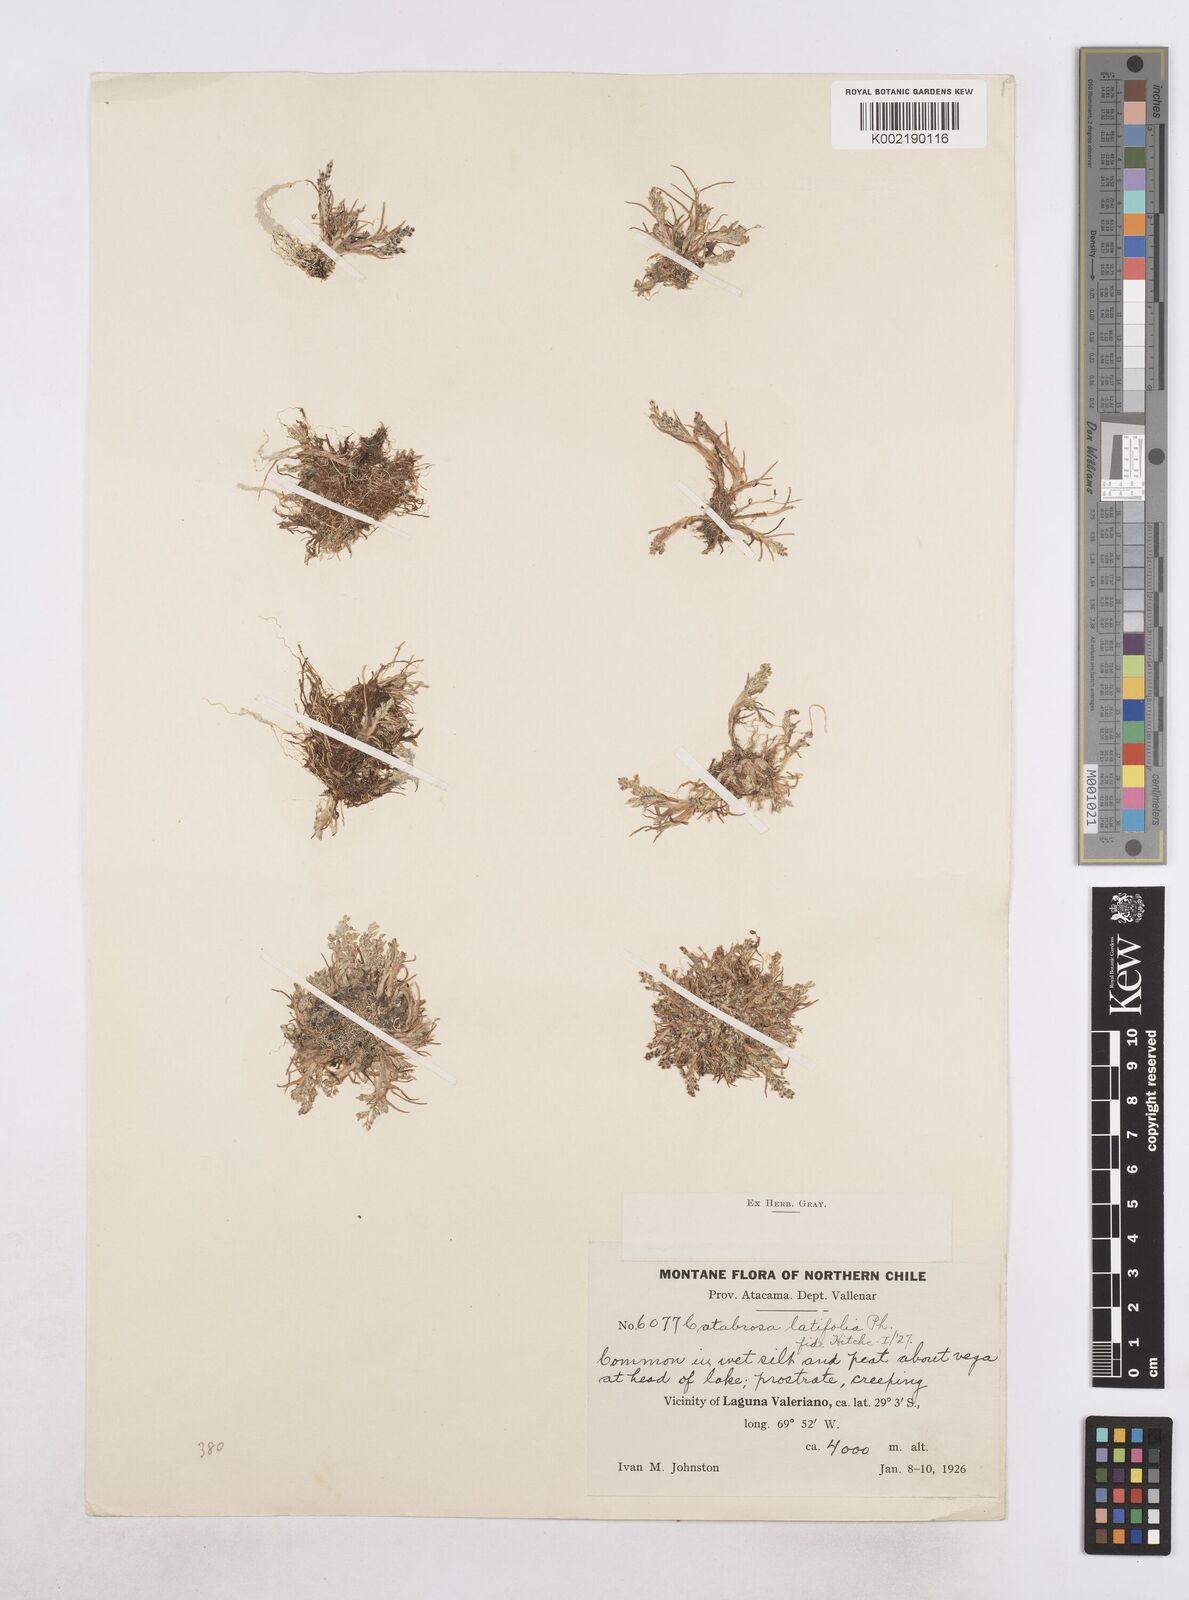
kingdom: Plantae
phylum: Tracheophyta
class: Liliopsida
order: Poales
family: Poaceae
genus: Catabrosa
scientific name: Catabrosa werdermannii
